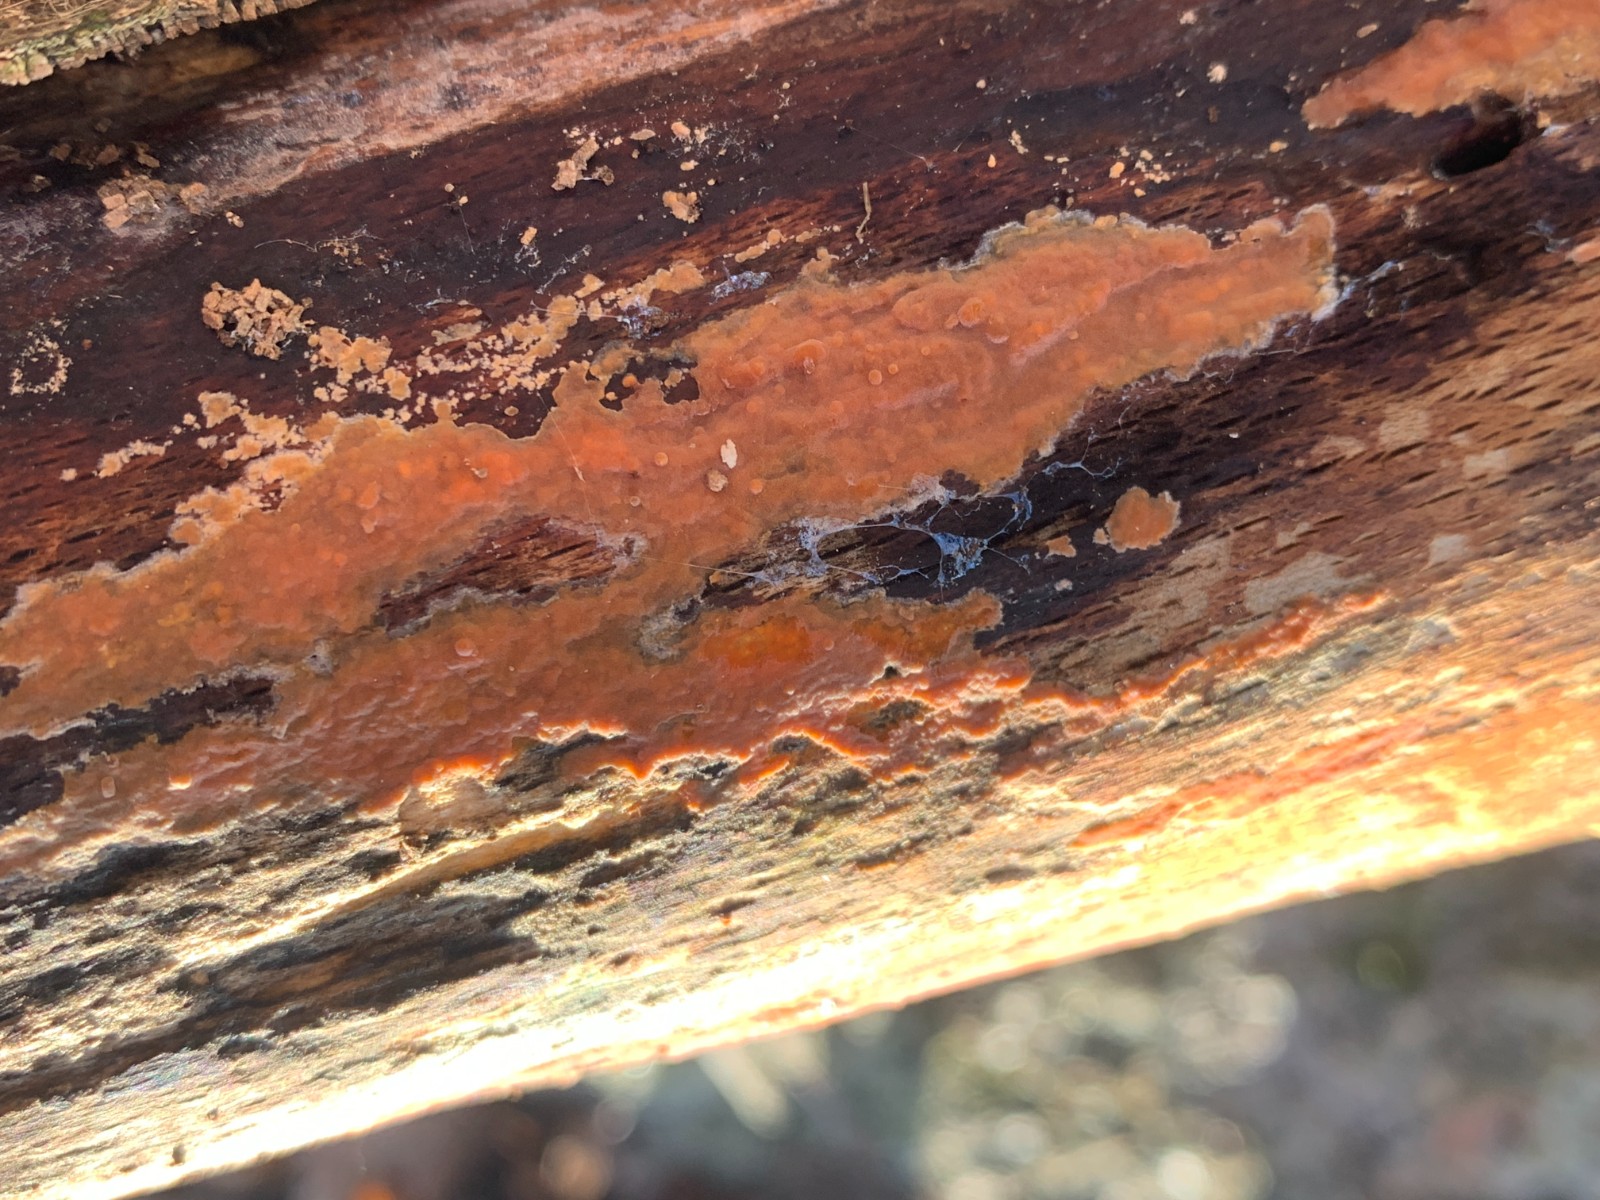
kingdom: Fungi
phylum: Basidiomycota
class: Agaricomycetes
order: Russulales
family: Peniophoraceae
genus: Peniophora
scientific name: Peniophora incarnata
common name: laksefarvet voksskind
